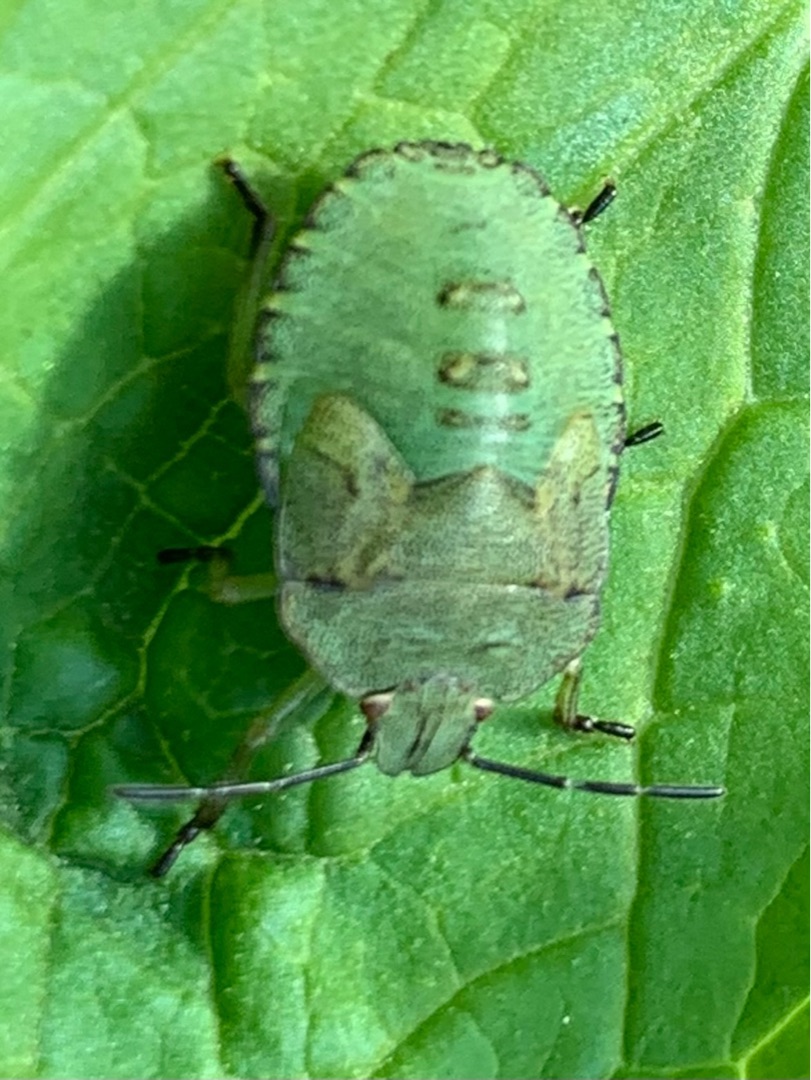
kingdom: Animalia
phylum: Arthropoda
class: Insecta
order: Hemiptera
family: Pentatomidae
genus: Palomena
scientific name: Palomena prasina
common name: Grøn bredtæge
